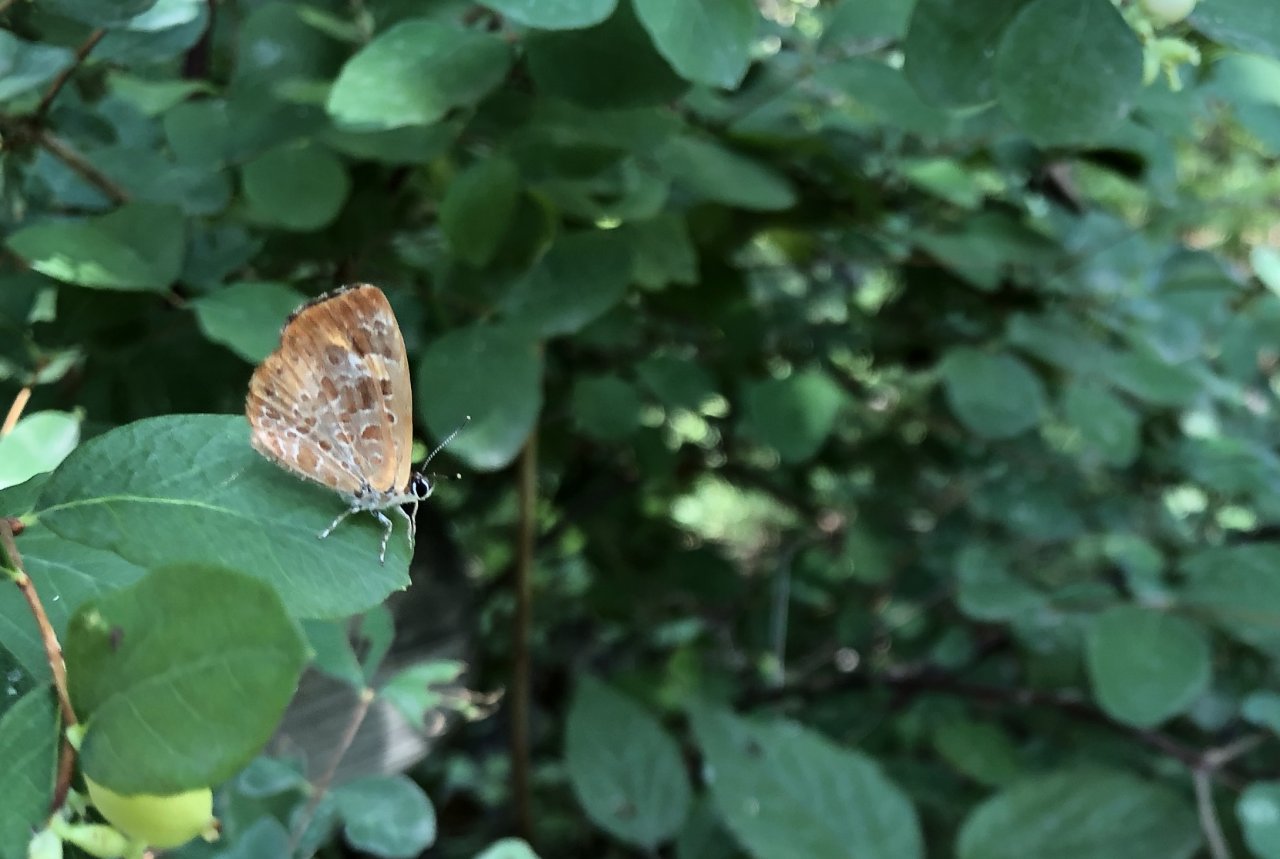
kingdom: Animalia
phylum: Arthropoda
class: Insecta
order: Lepidoptera
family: Lycaenidae
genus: Feniseca
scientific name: Feniseca tarquinius
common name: Harvester
